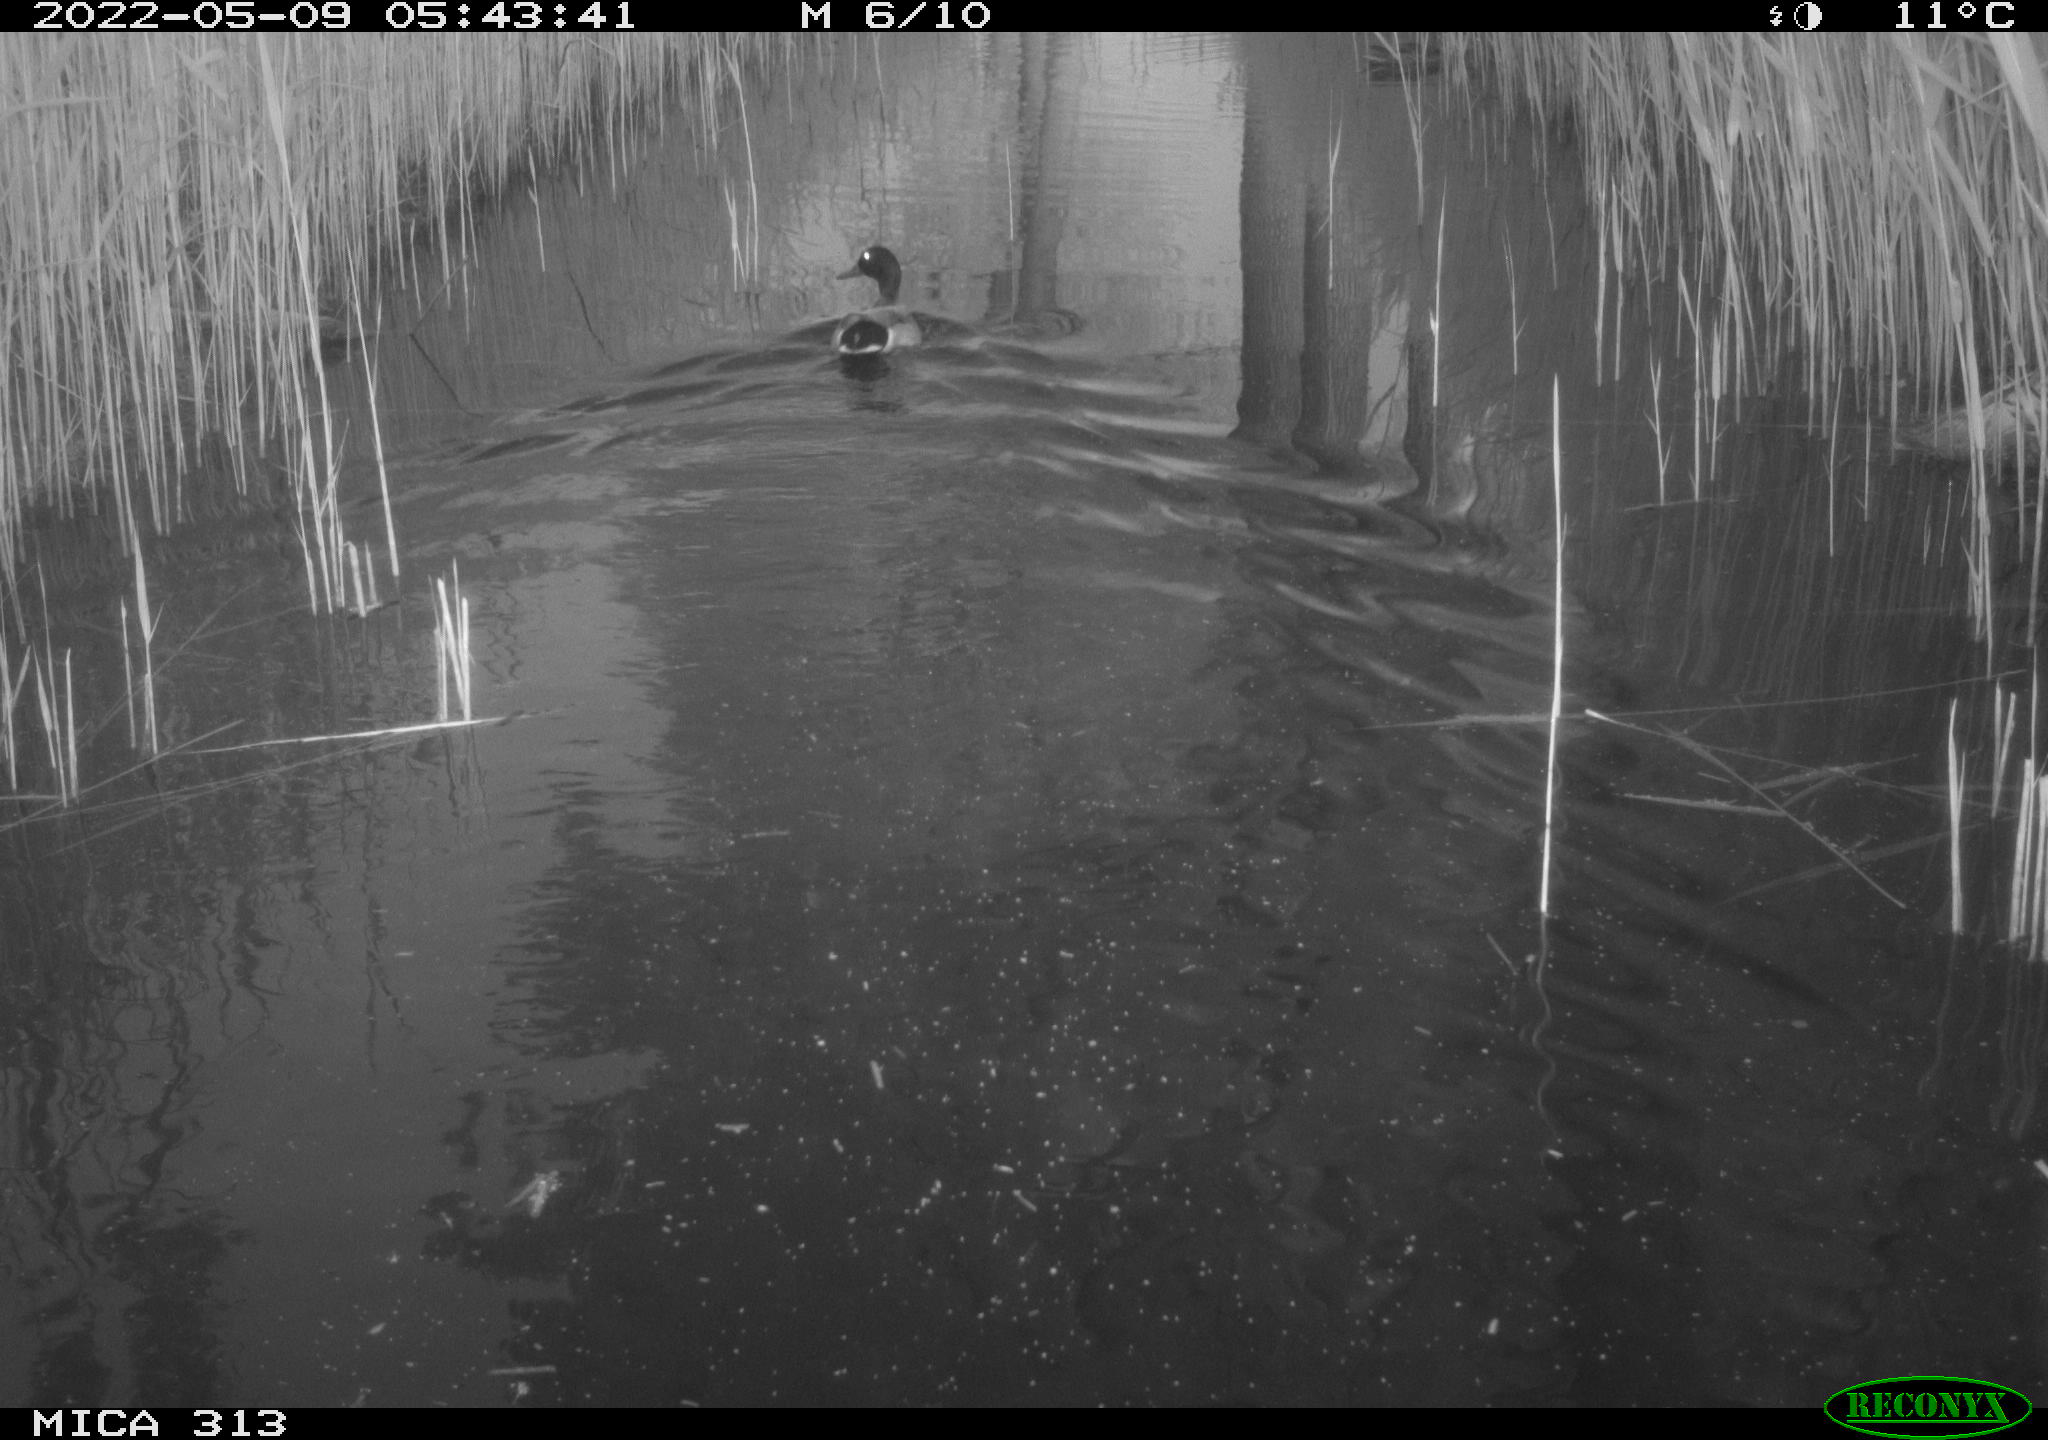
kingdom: Animalia
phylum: Chordata
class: Aves
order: Anseriformes
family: Anatidae
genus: Anas
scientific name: Anas platyrhynchos
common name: Mallard
